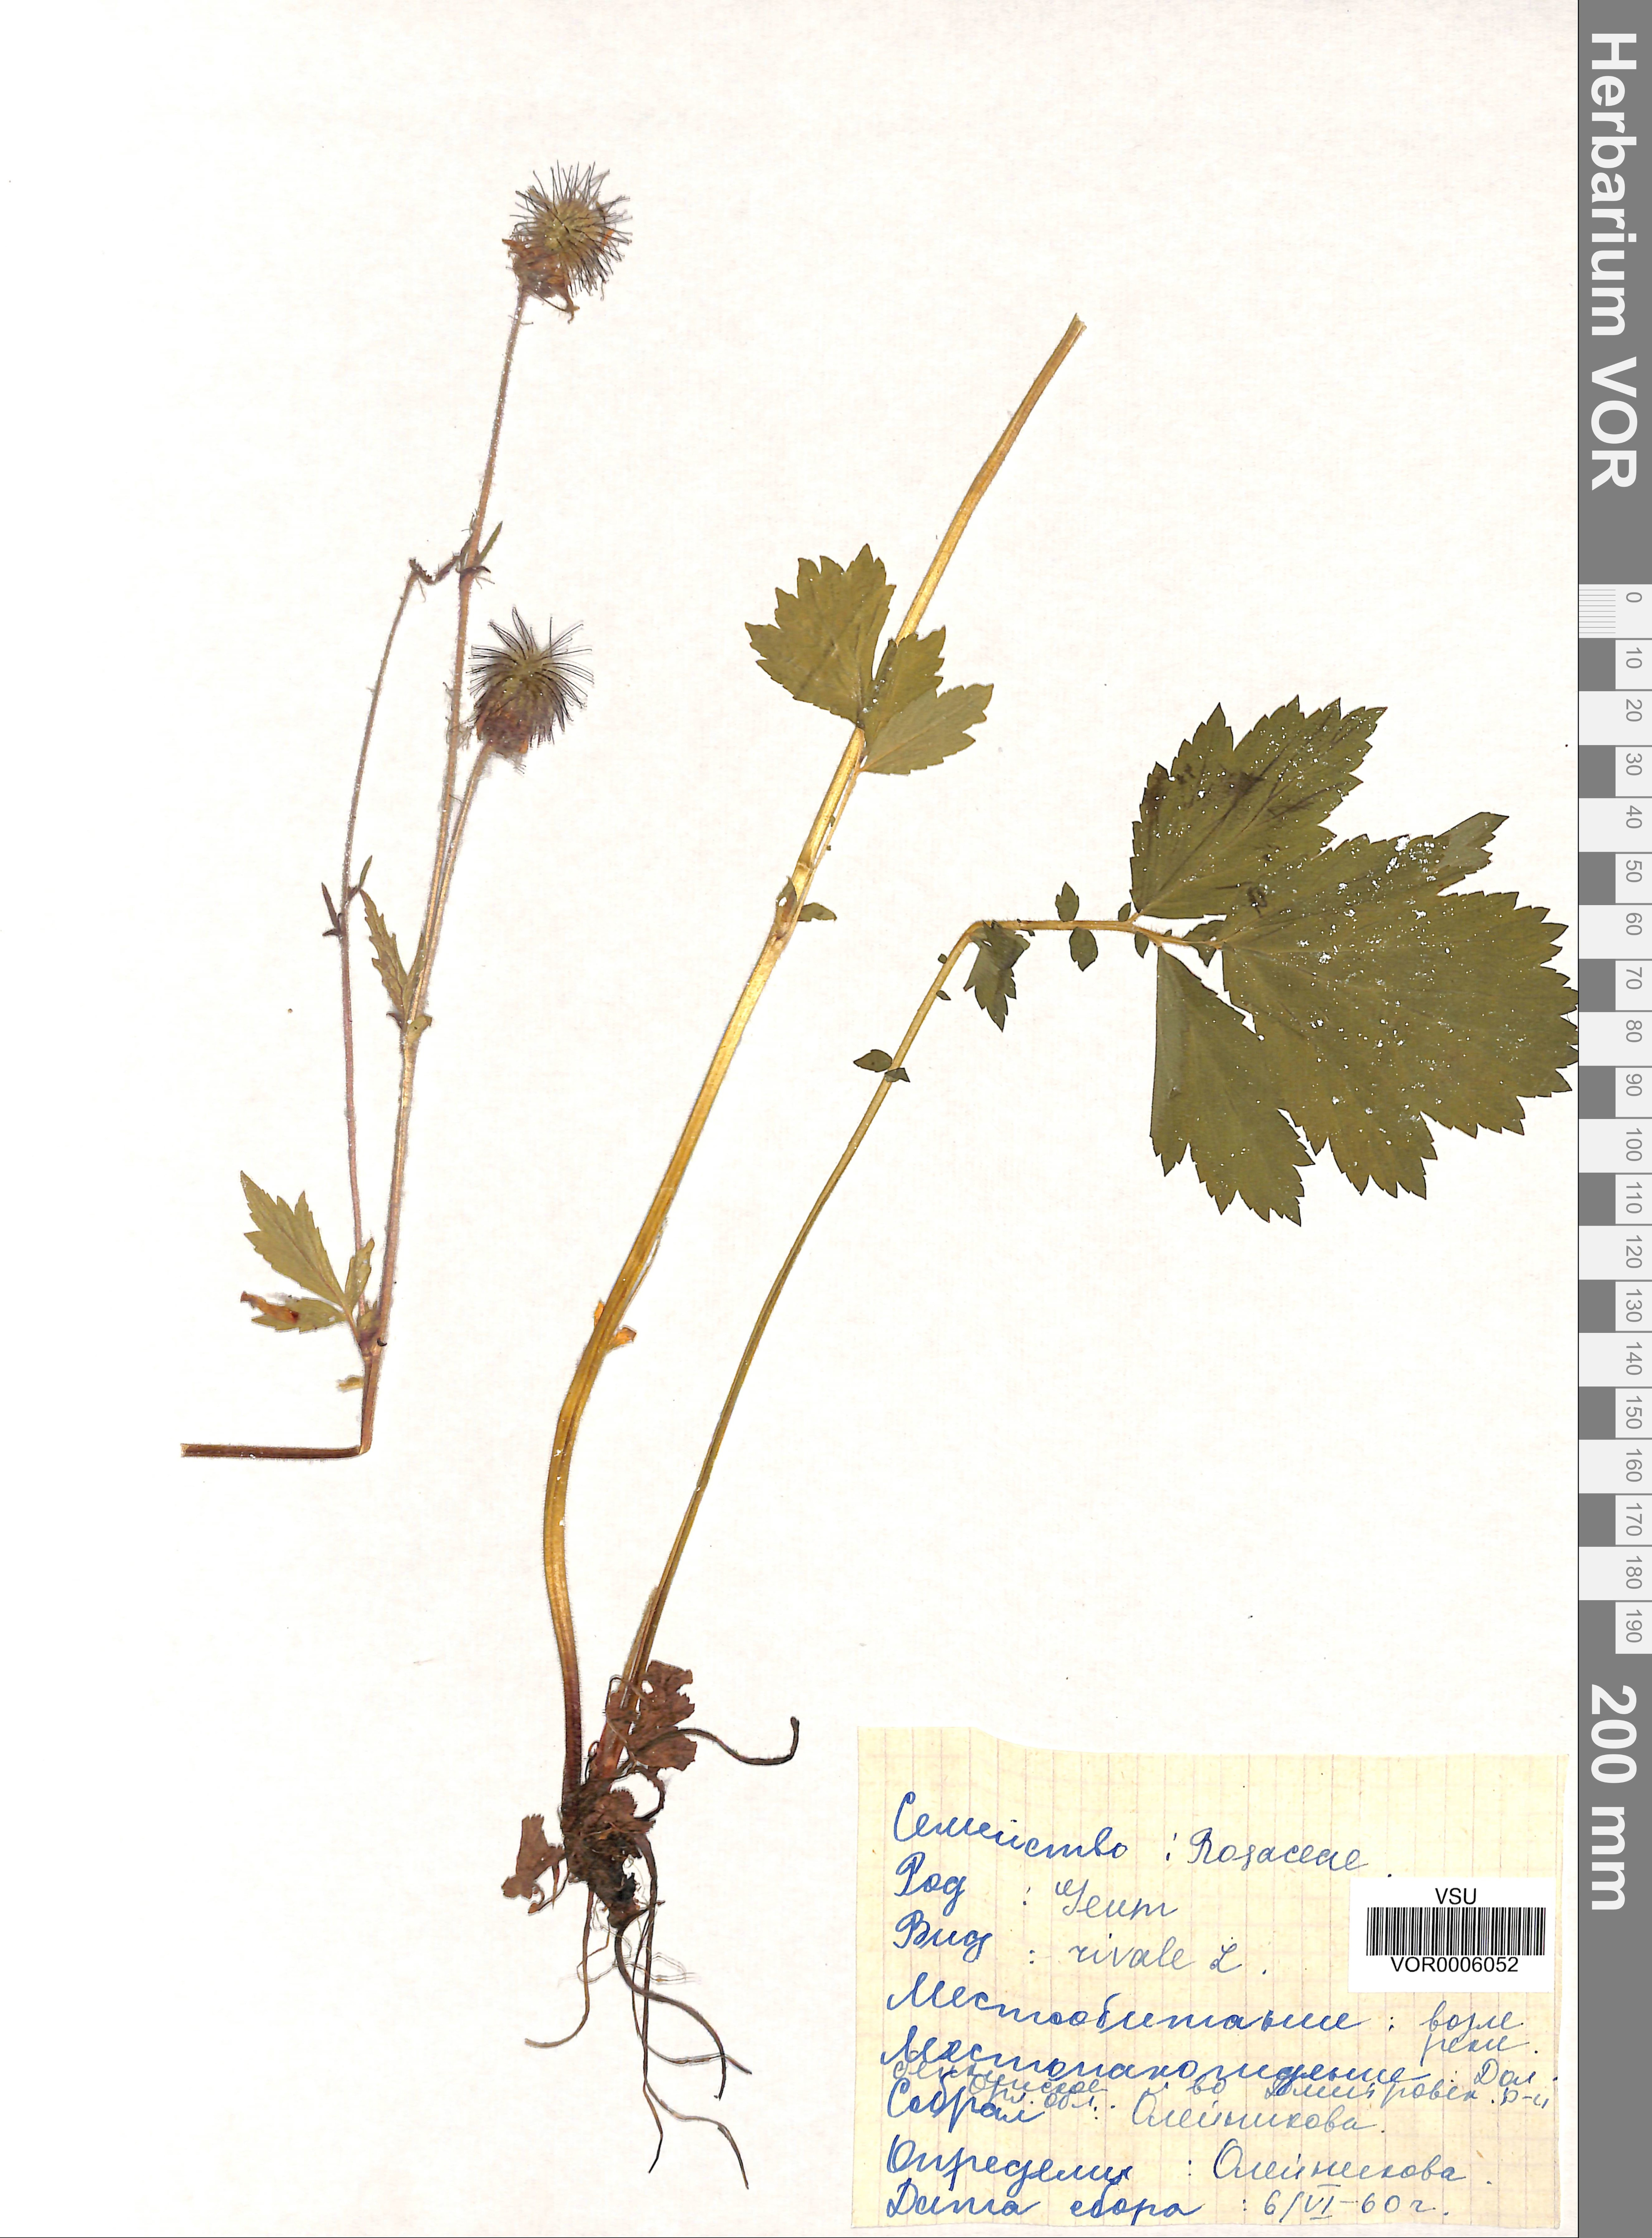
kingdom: Plantae
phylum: Tracheophyta
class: Magnoliopsida
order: Rosales
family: Rosaceae
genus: Geum
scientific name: Geum rivale
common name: Water avens
